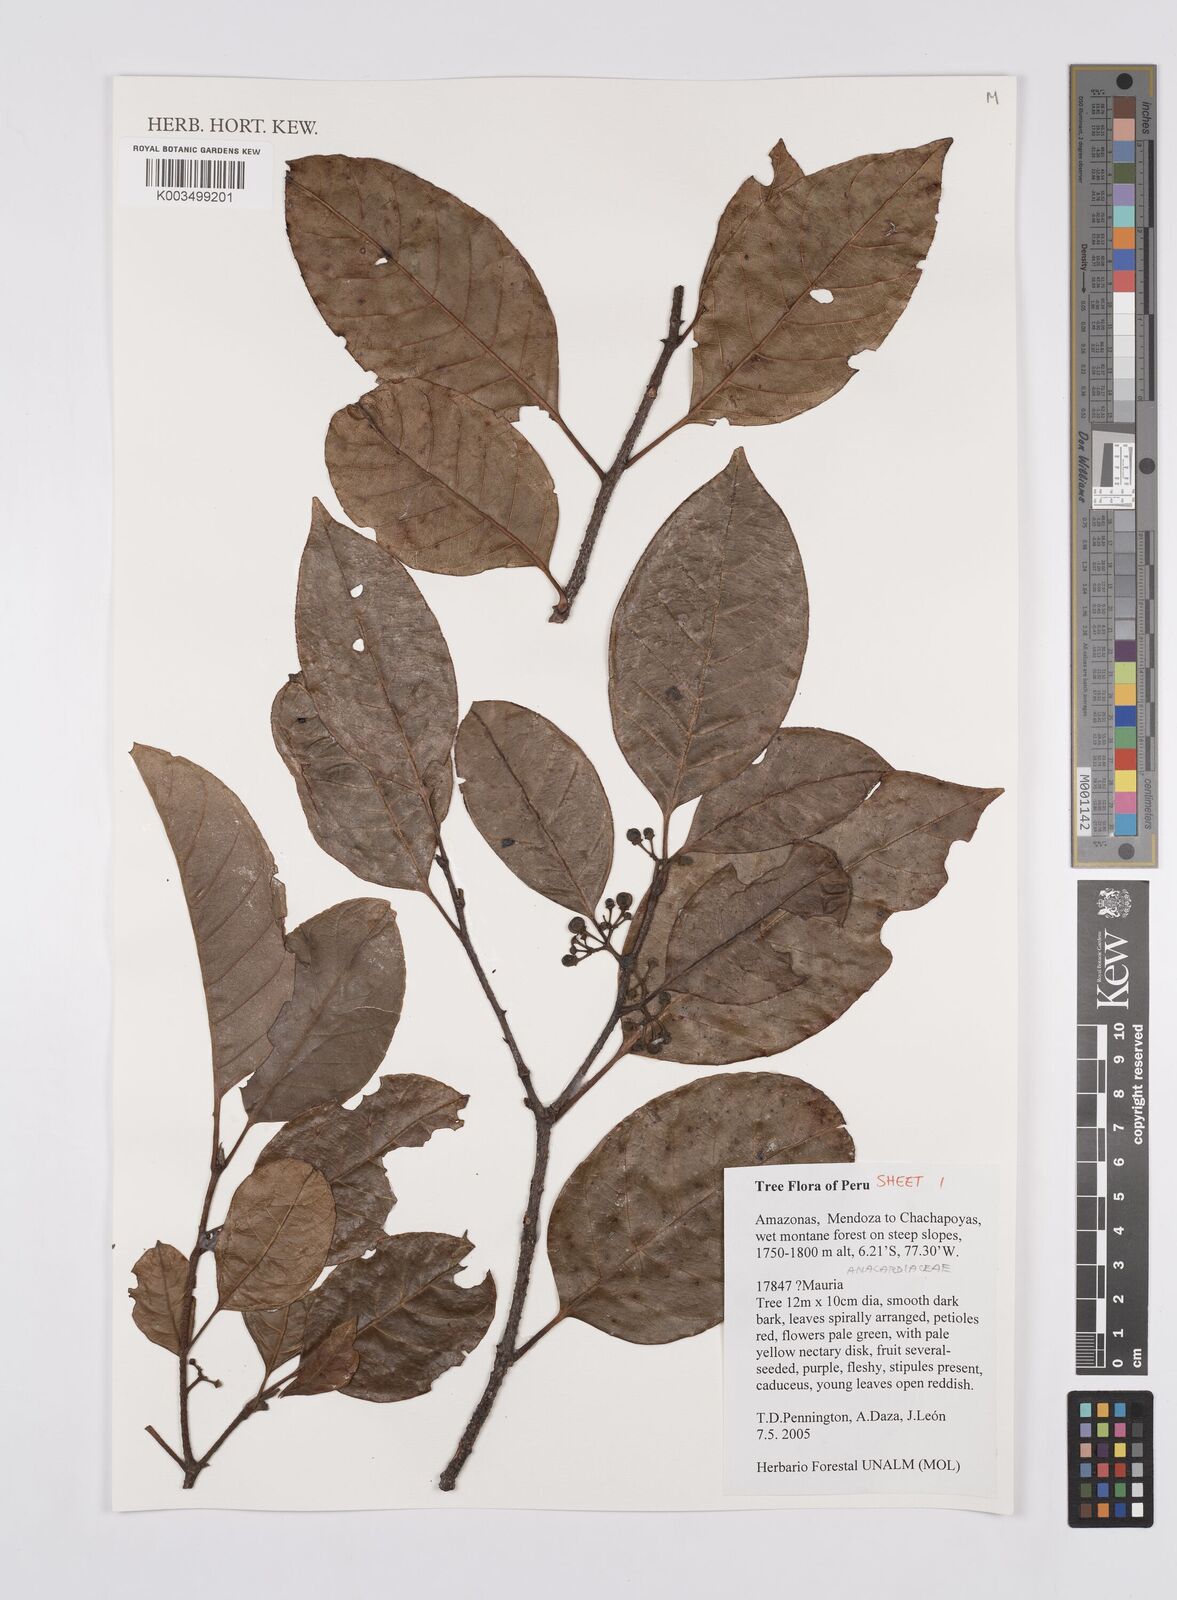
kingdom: Plantae
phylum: Tracheophyta
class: Magnoliopsida
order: Sapindales
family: Anacardiaceae
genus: Mauria
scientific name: Mauria
